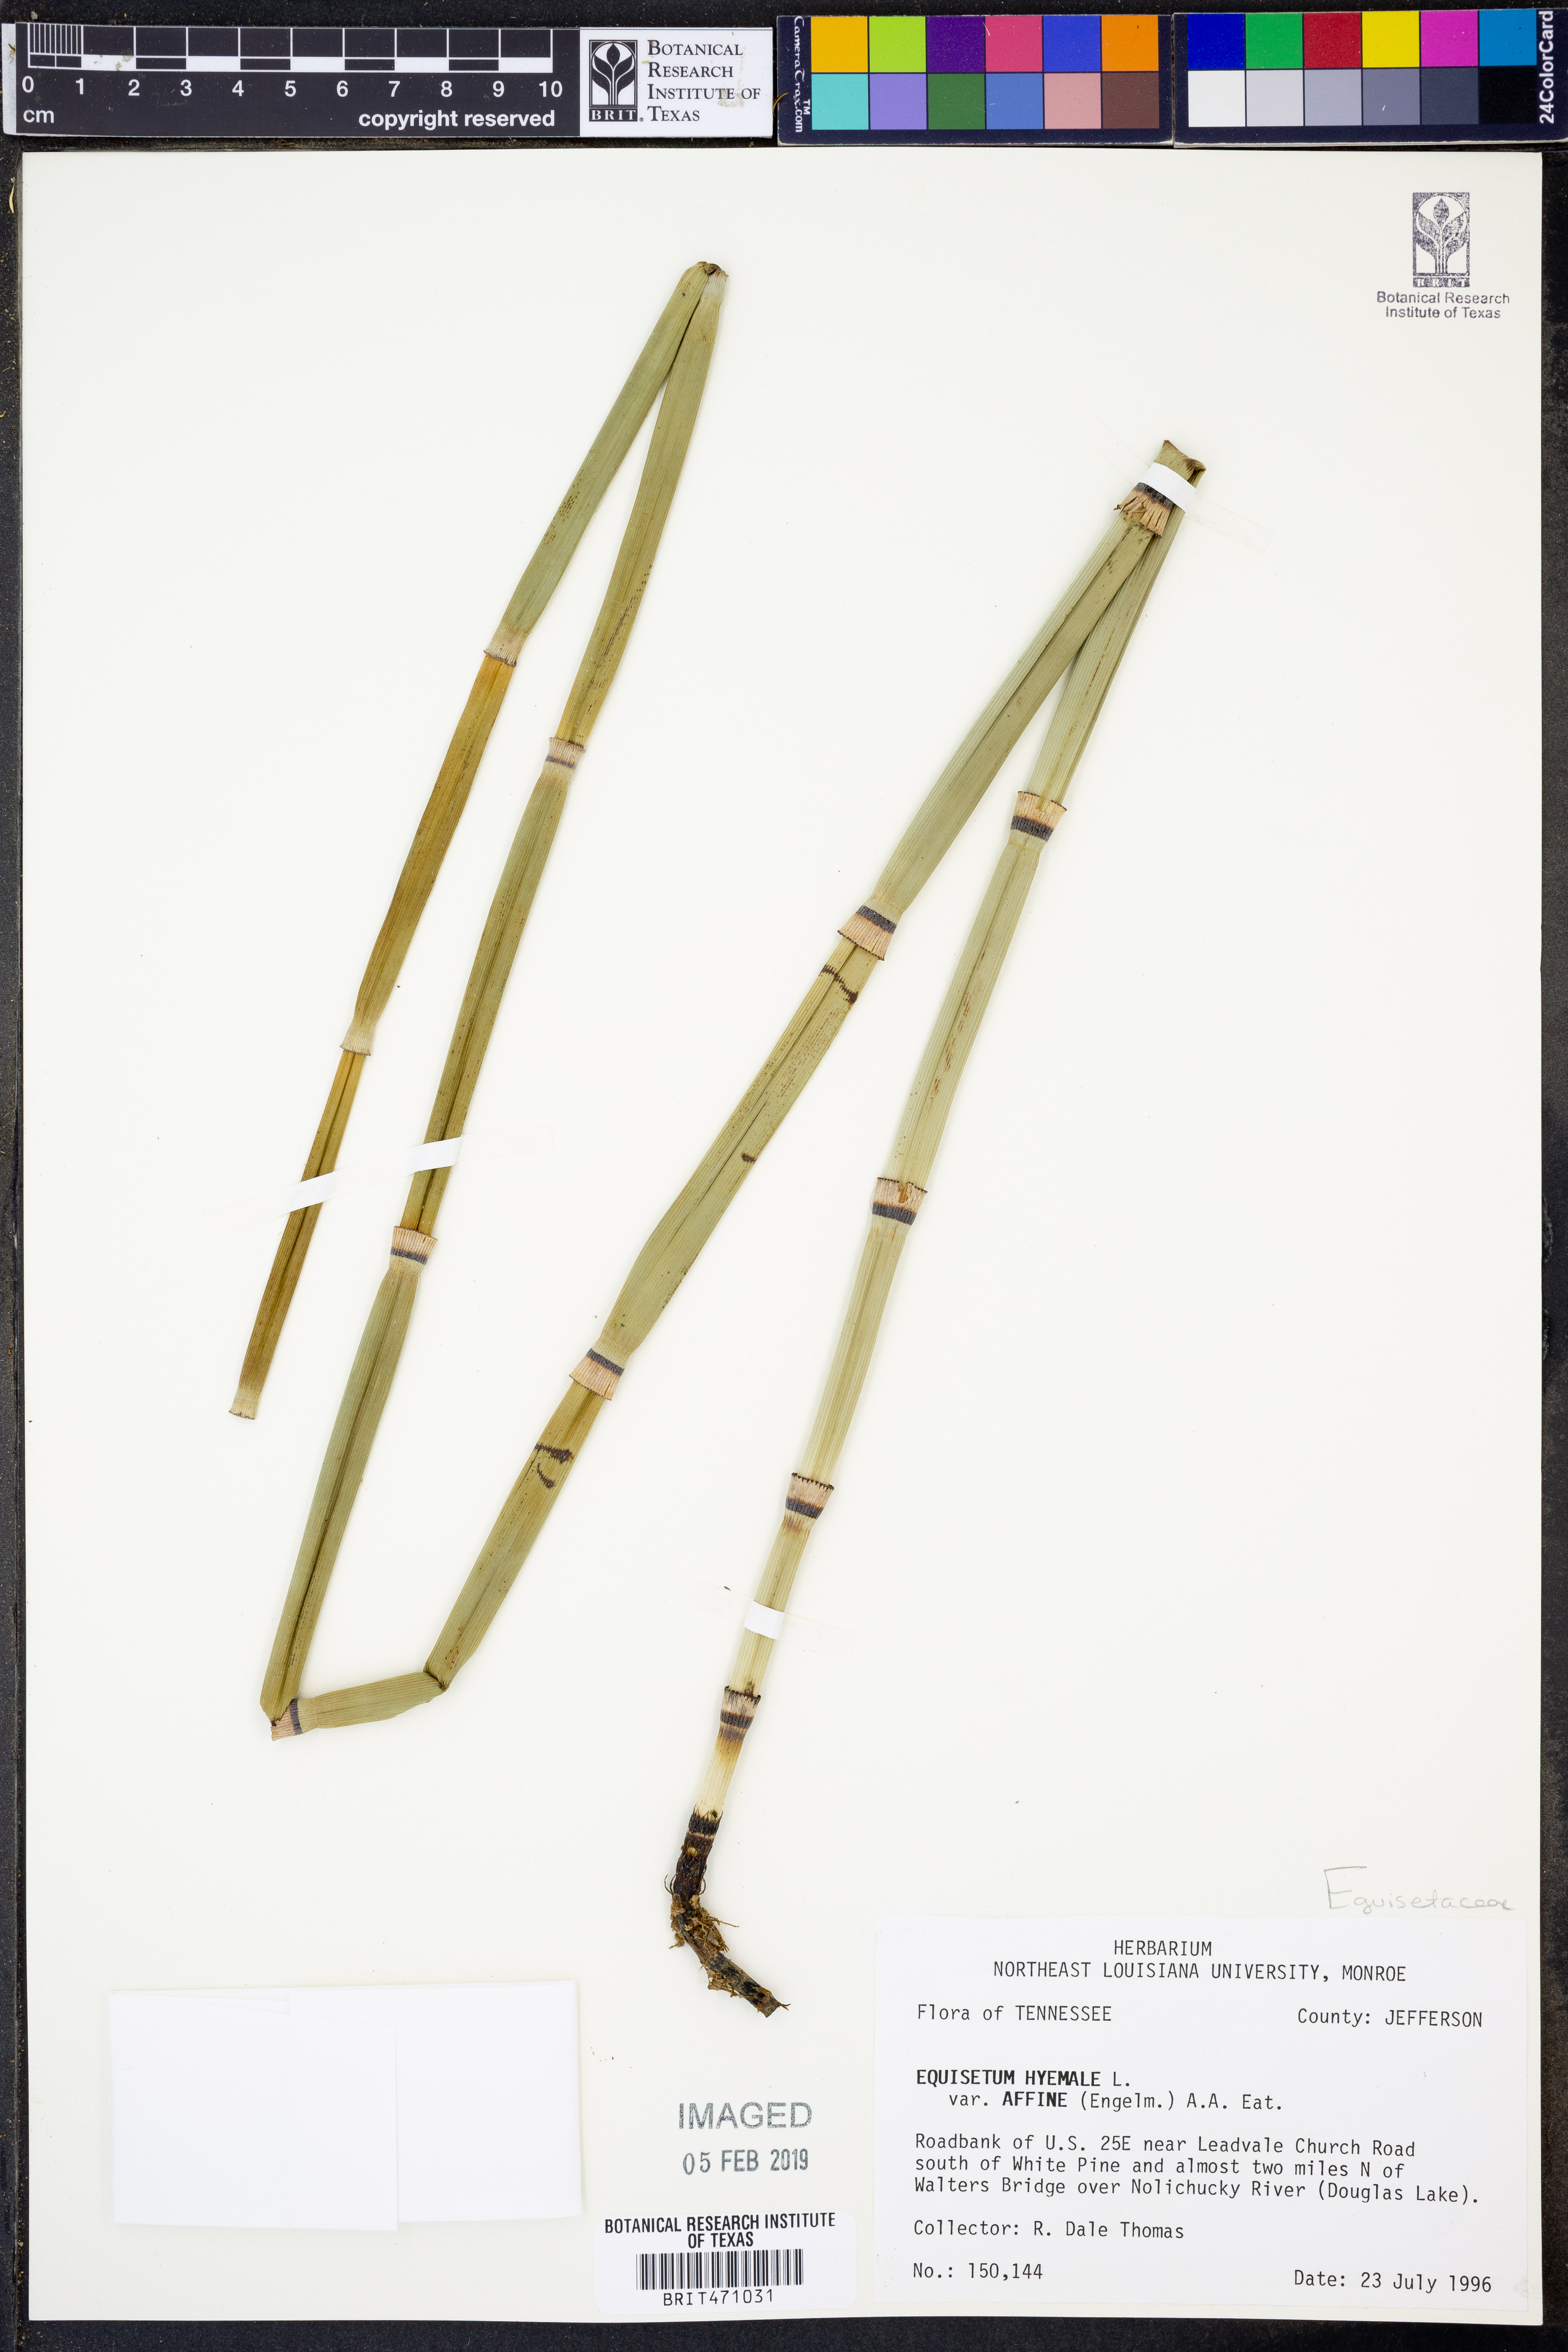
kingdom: Plantae
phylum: Tracheophyta
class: Polypodiopsida
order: Equisetales
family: Equisetaceae
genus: Equisetum
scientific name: Equisetum praealtum
